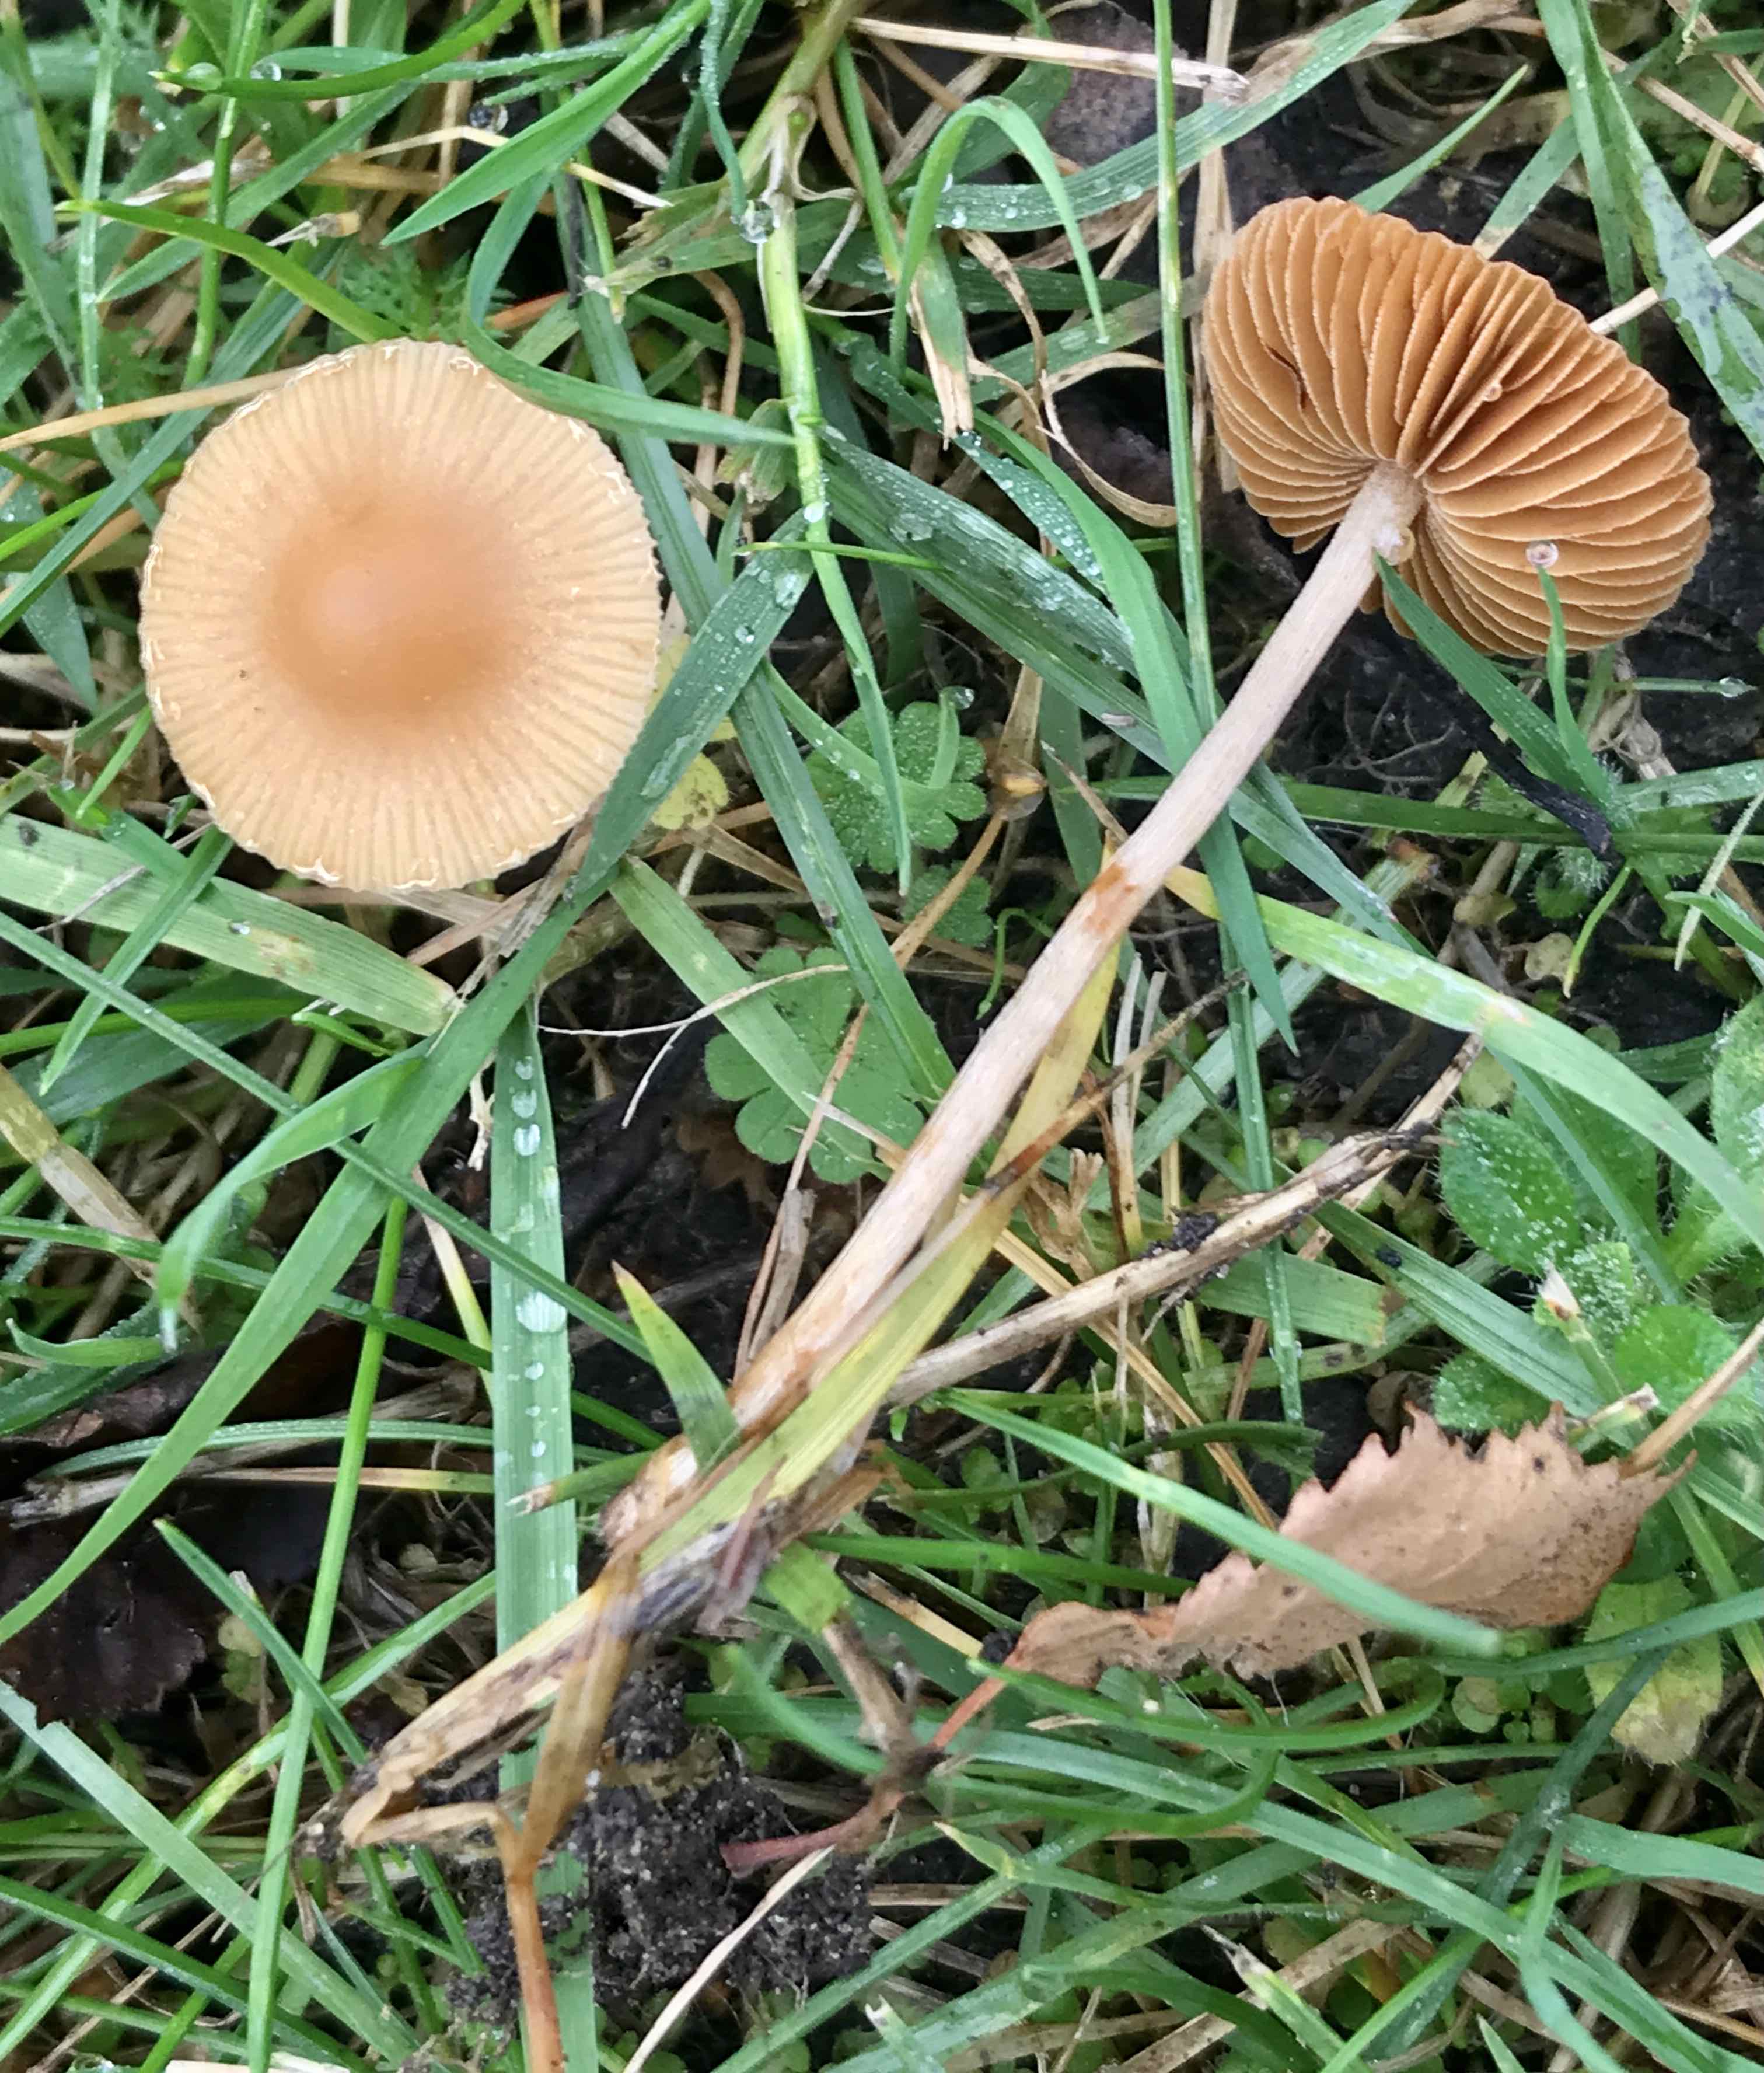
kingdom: Fungi
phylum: Basidiomycota
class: Agaricomycetes
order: Agaricales
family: Tubariaceae
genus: Tubaria
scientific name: Tubaria furfuracea
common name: kliddet fnughat
